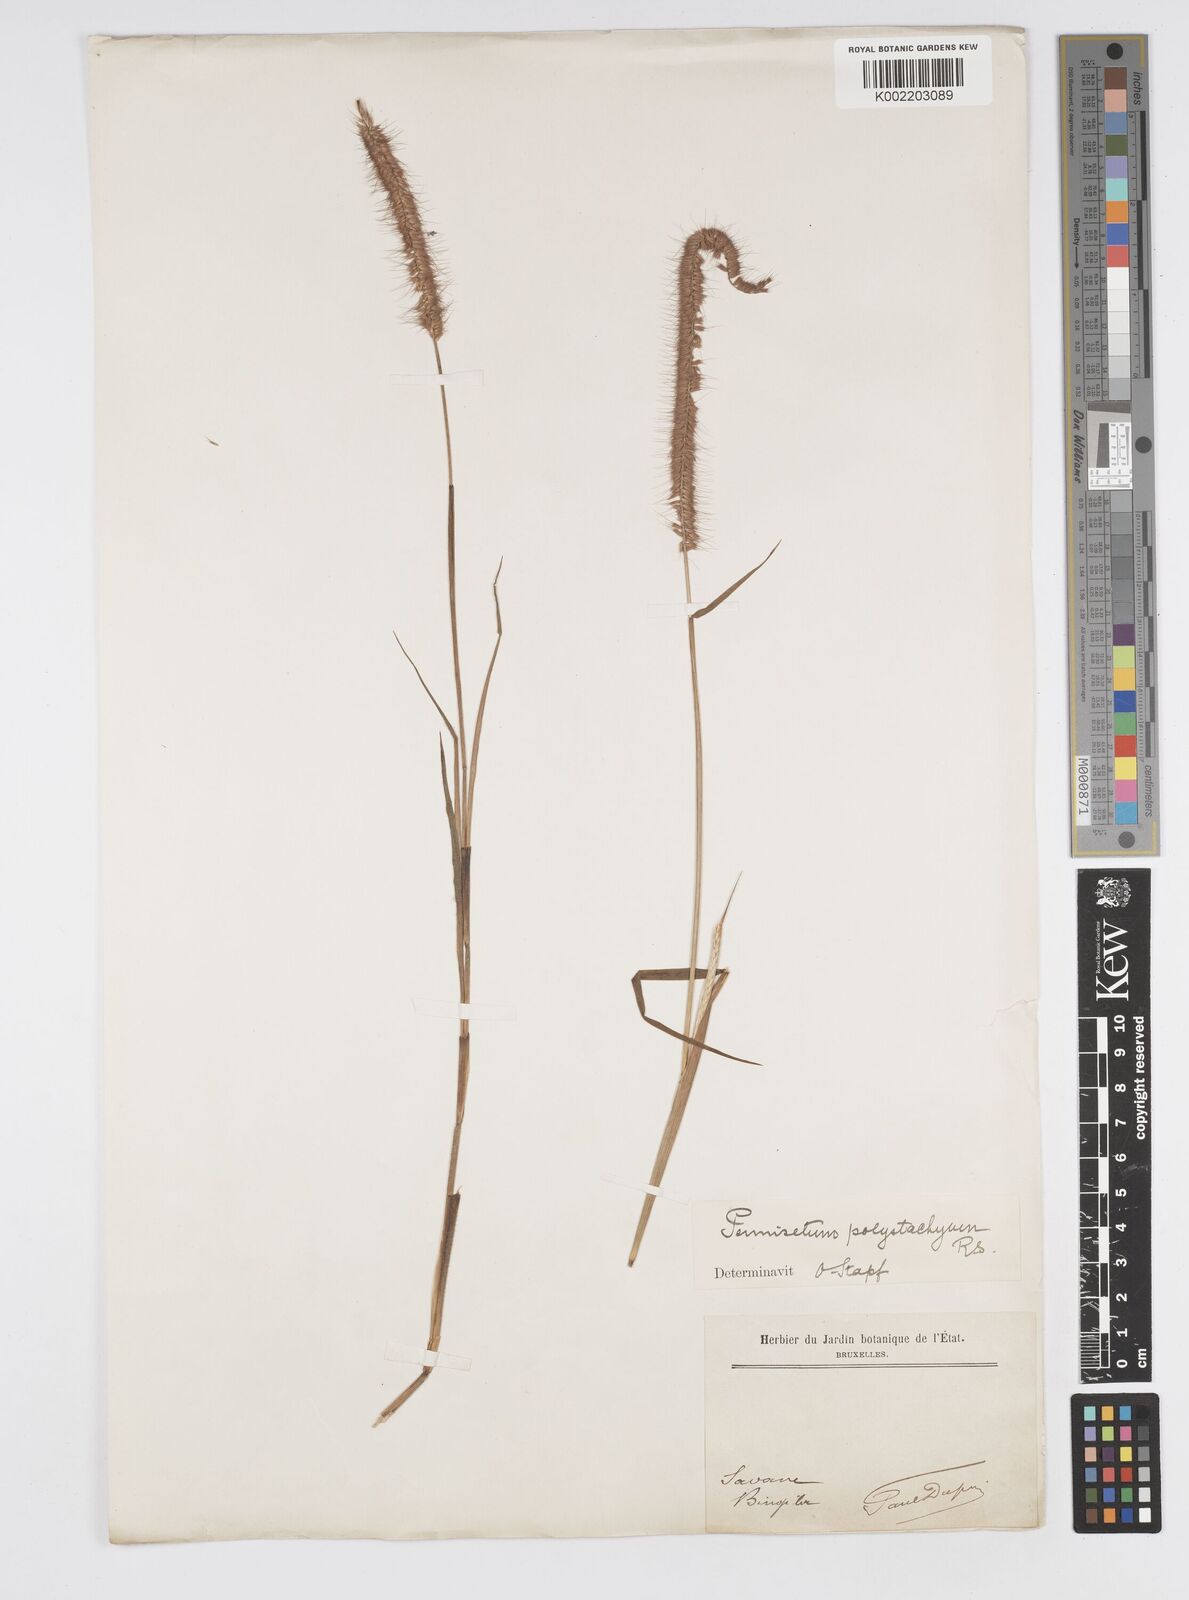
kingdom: Plantae
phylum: Tracheophyta
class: Liliopsida
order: Poales
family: Poaceae
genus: Setaria
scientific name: Setaria parviflora
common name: Knotroot bristle-grass
